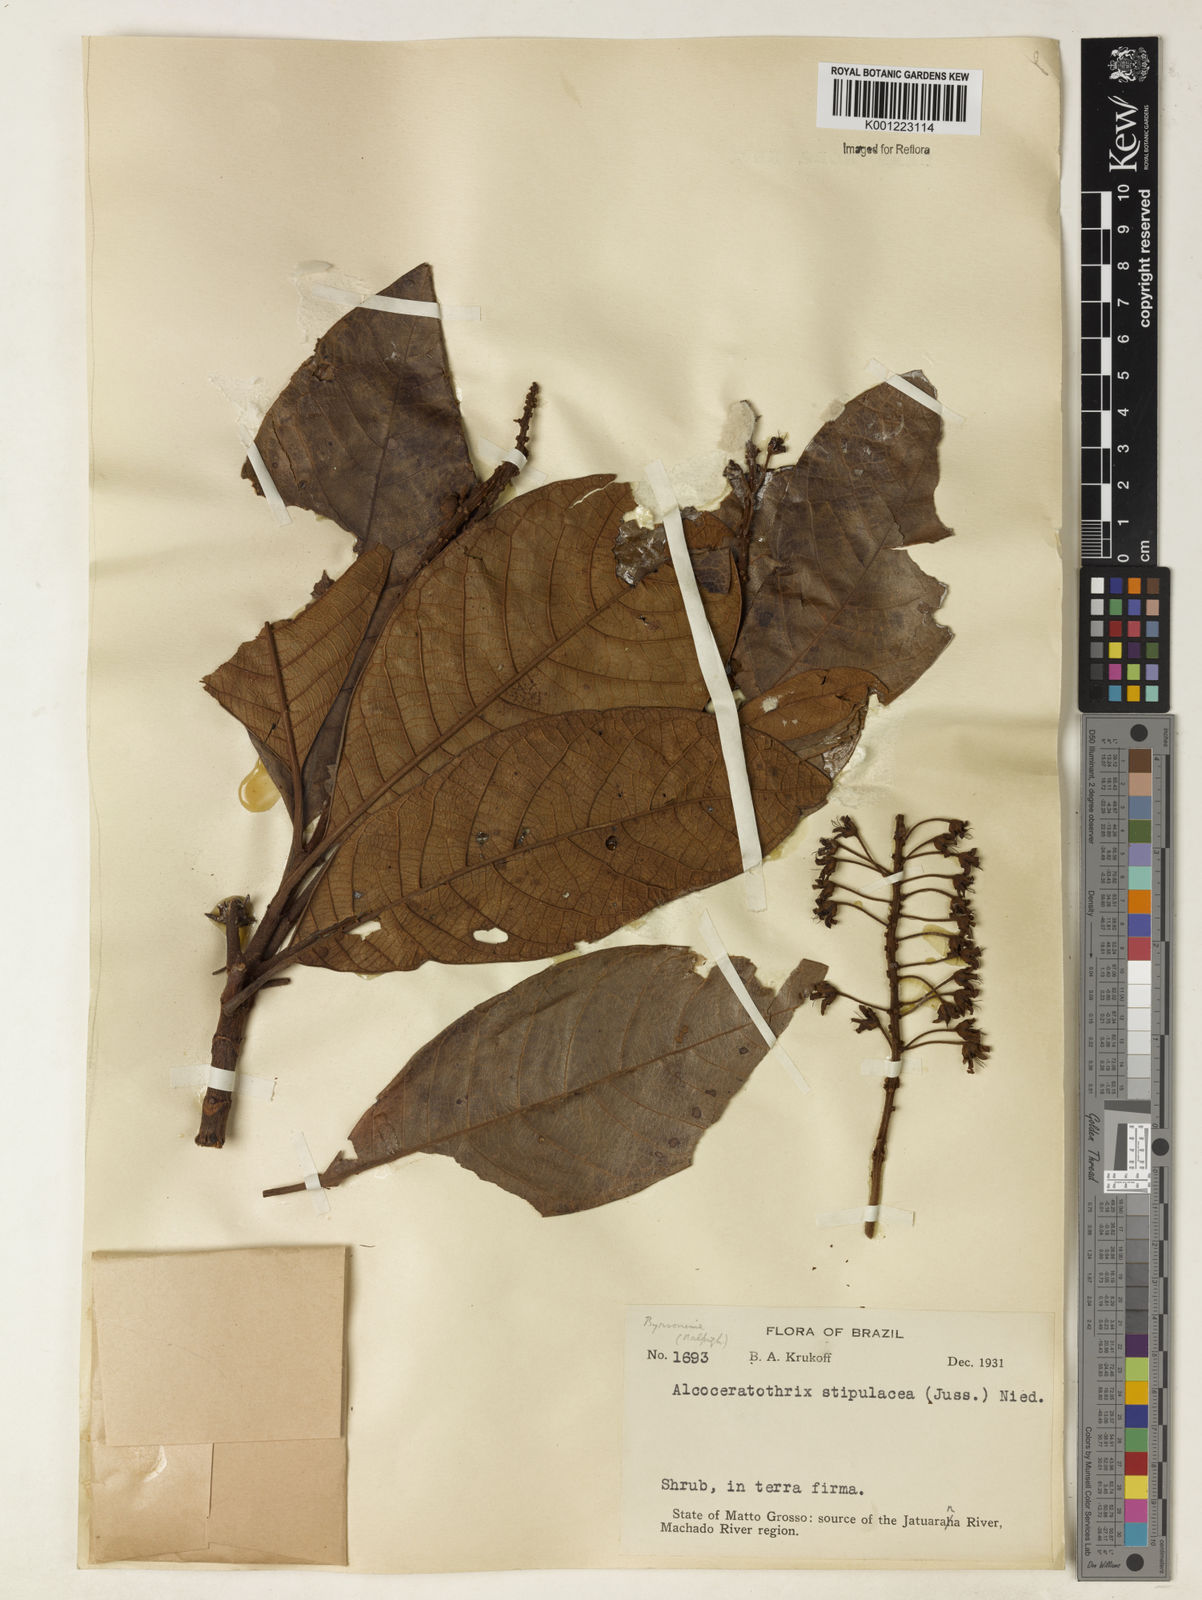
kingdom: Plantae
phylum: Tracheophyta
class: Magnoliopsida
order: Malpighiales
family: Malpighiaceae
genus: Byrsonima
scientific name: Byrsonima stipulacea
